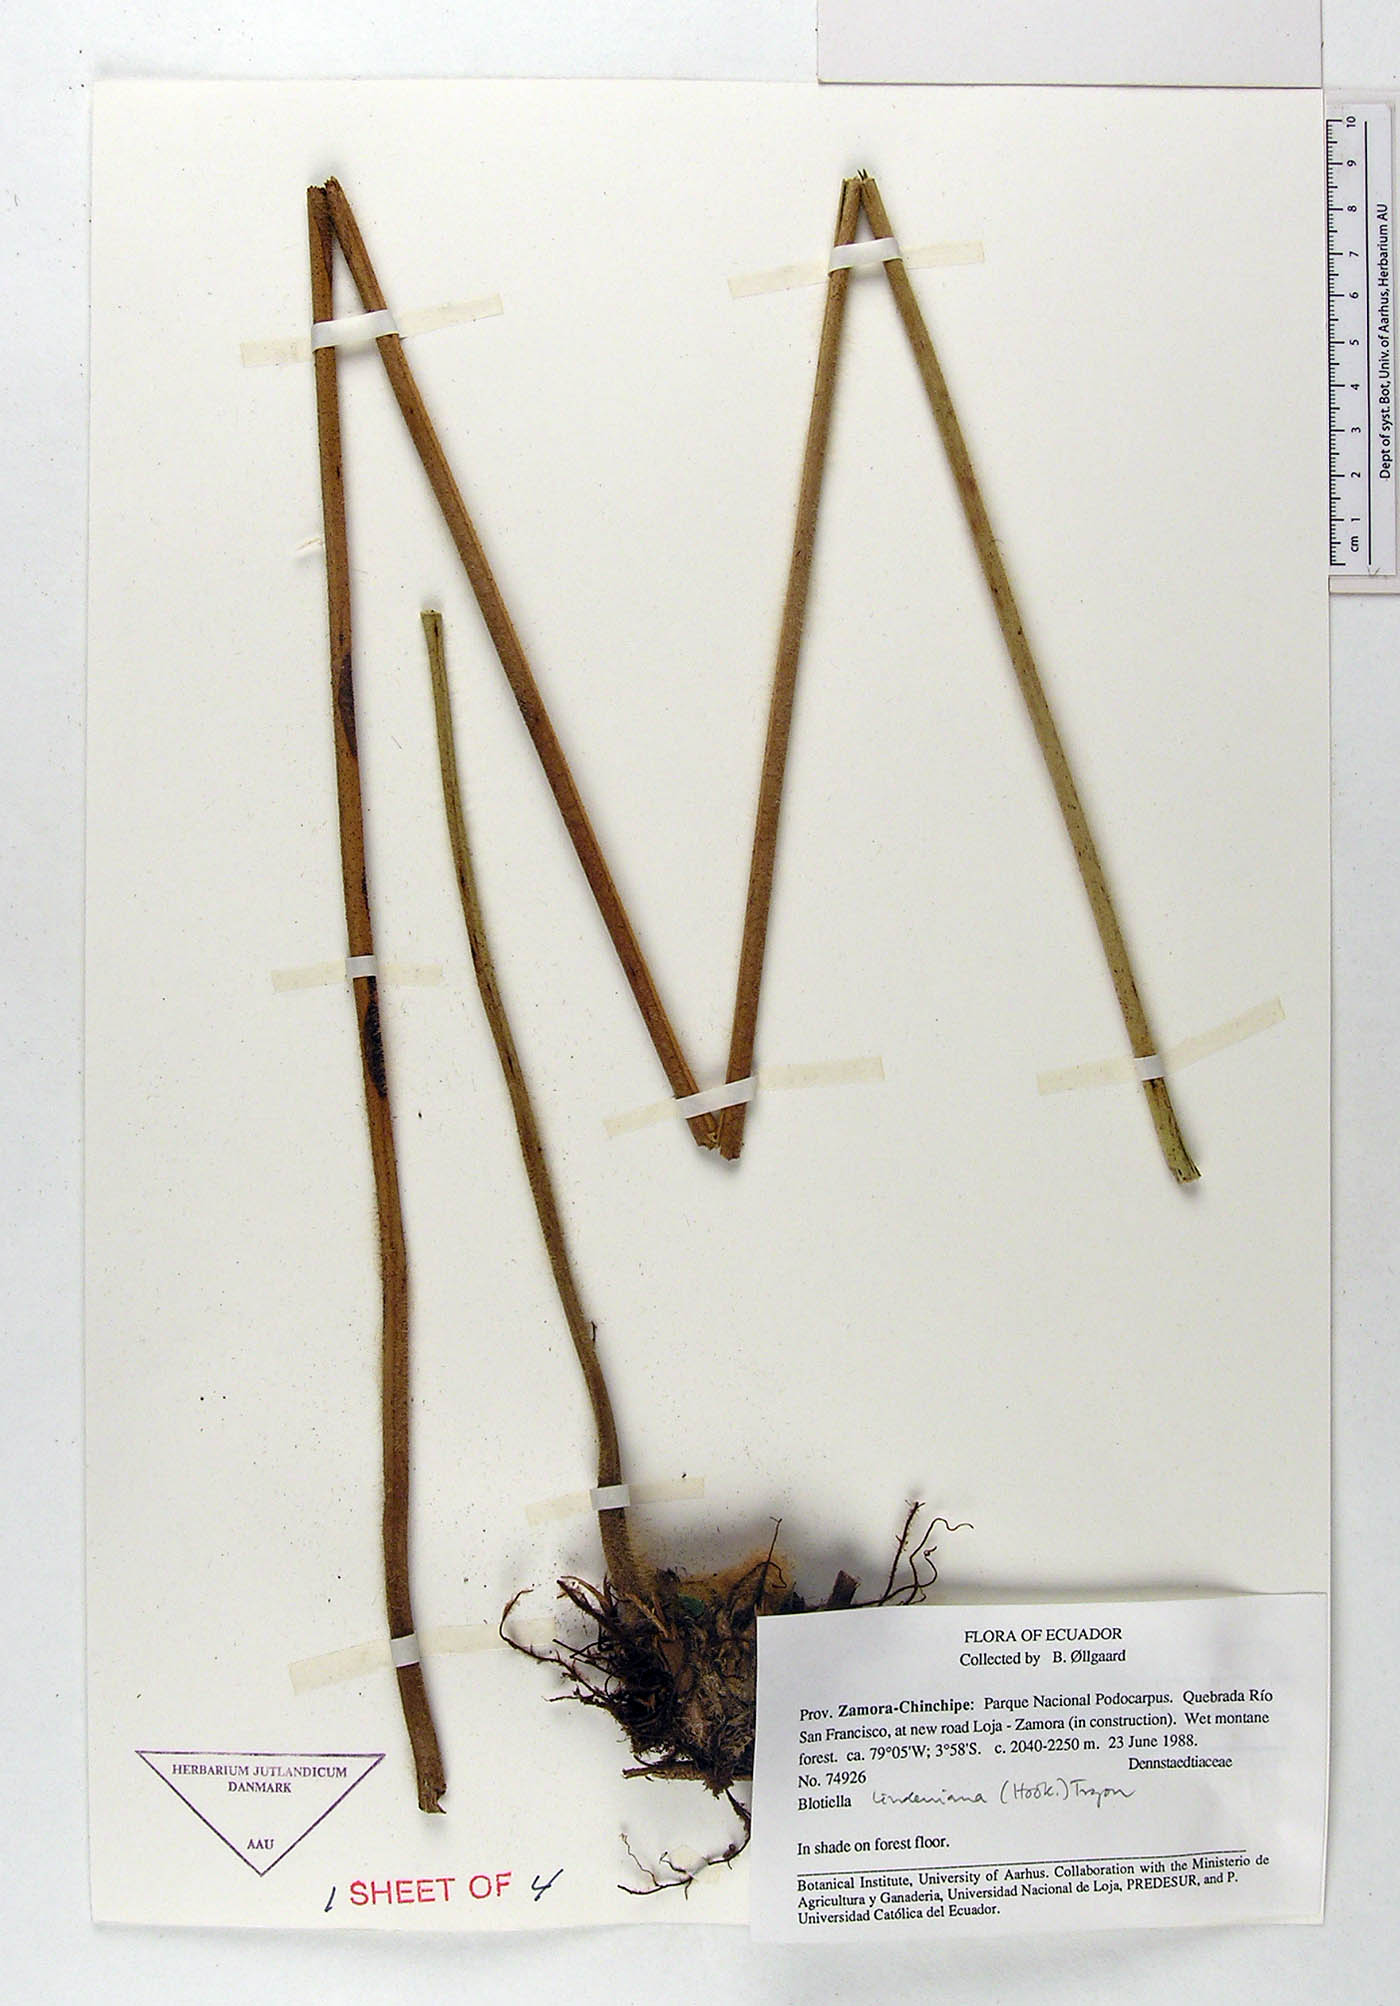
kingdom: Plantae
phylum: Tracheophyta
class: Polypodiopsida
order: Polypodiales
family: Dennstaedtiaceae
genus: Blotiella
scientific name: Blotiella aurita
